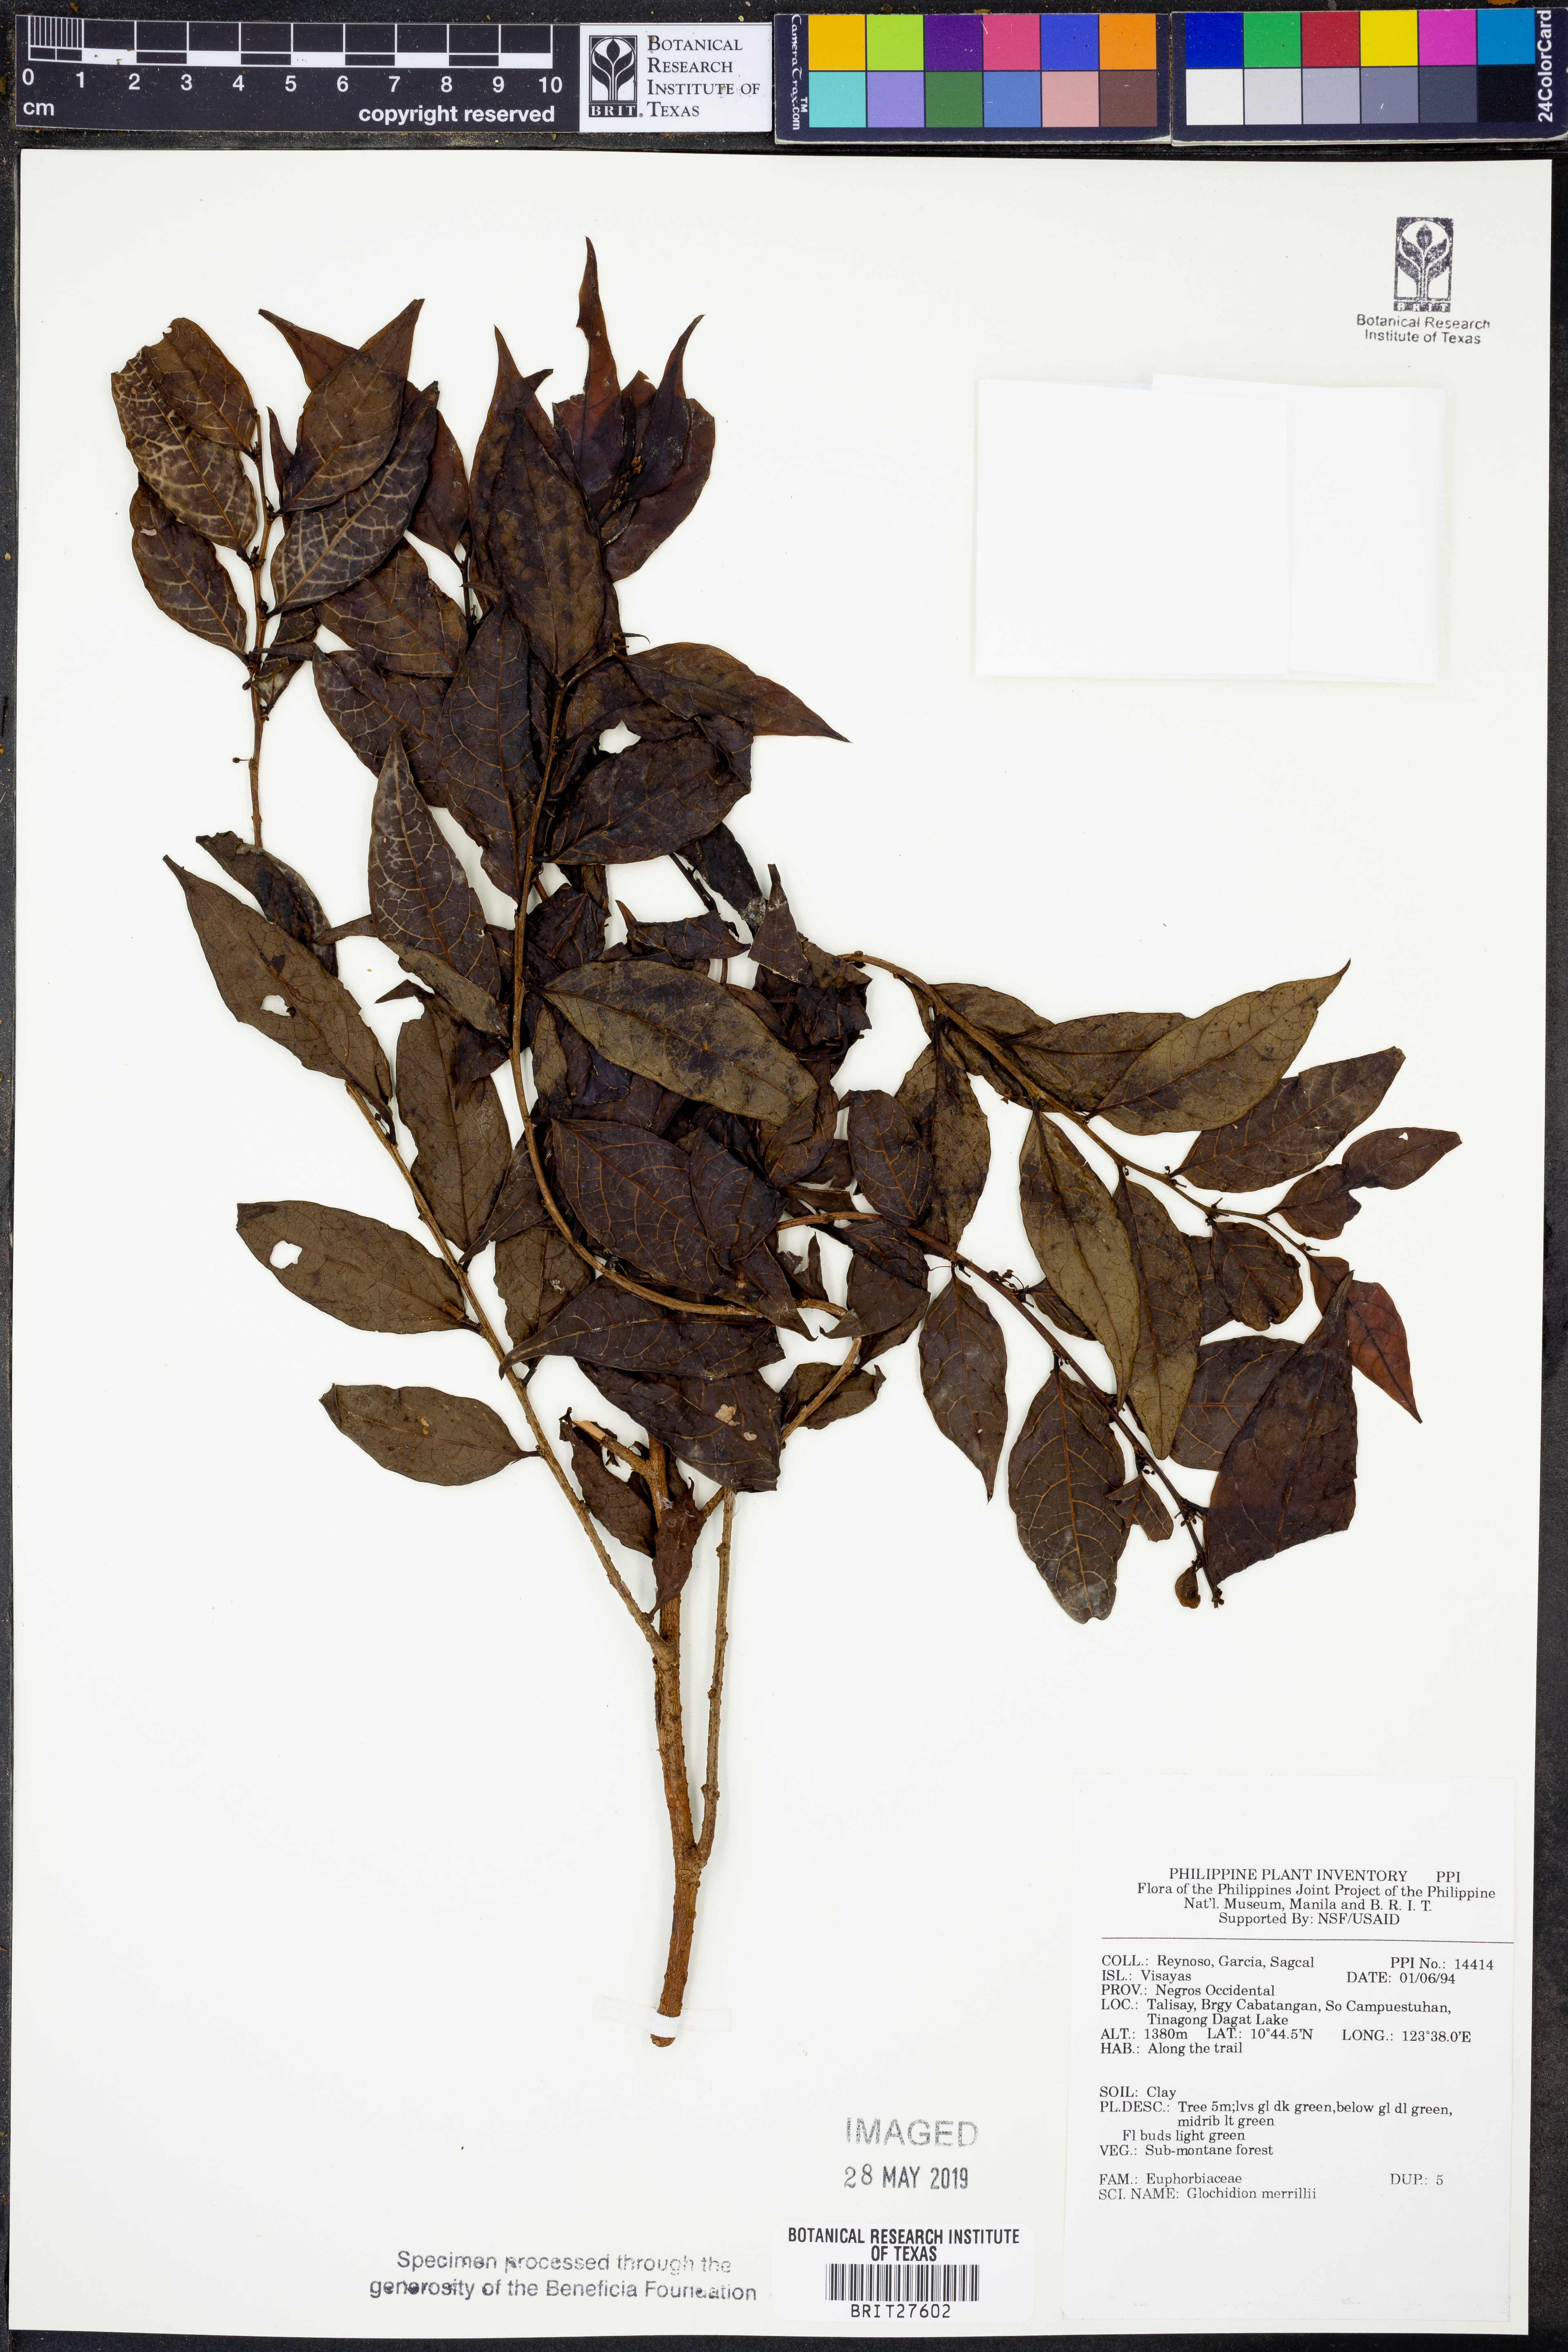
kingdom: Plantae
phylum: Tracheophyta
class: Magnoliopsida
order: Malpighiales
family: Phyllanthaceae
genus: Glochidion
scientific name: Glochidion merrillii
